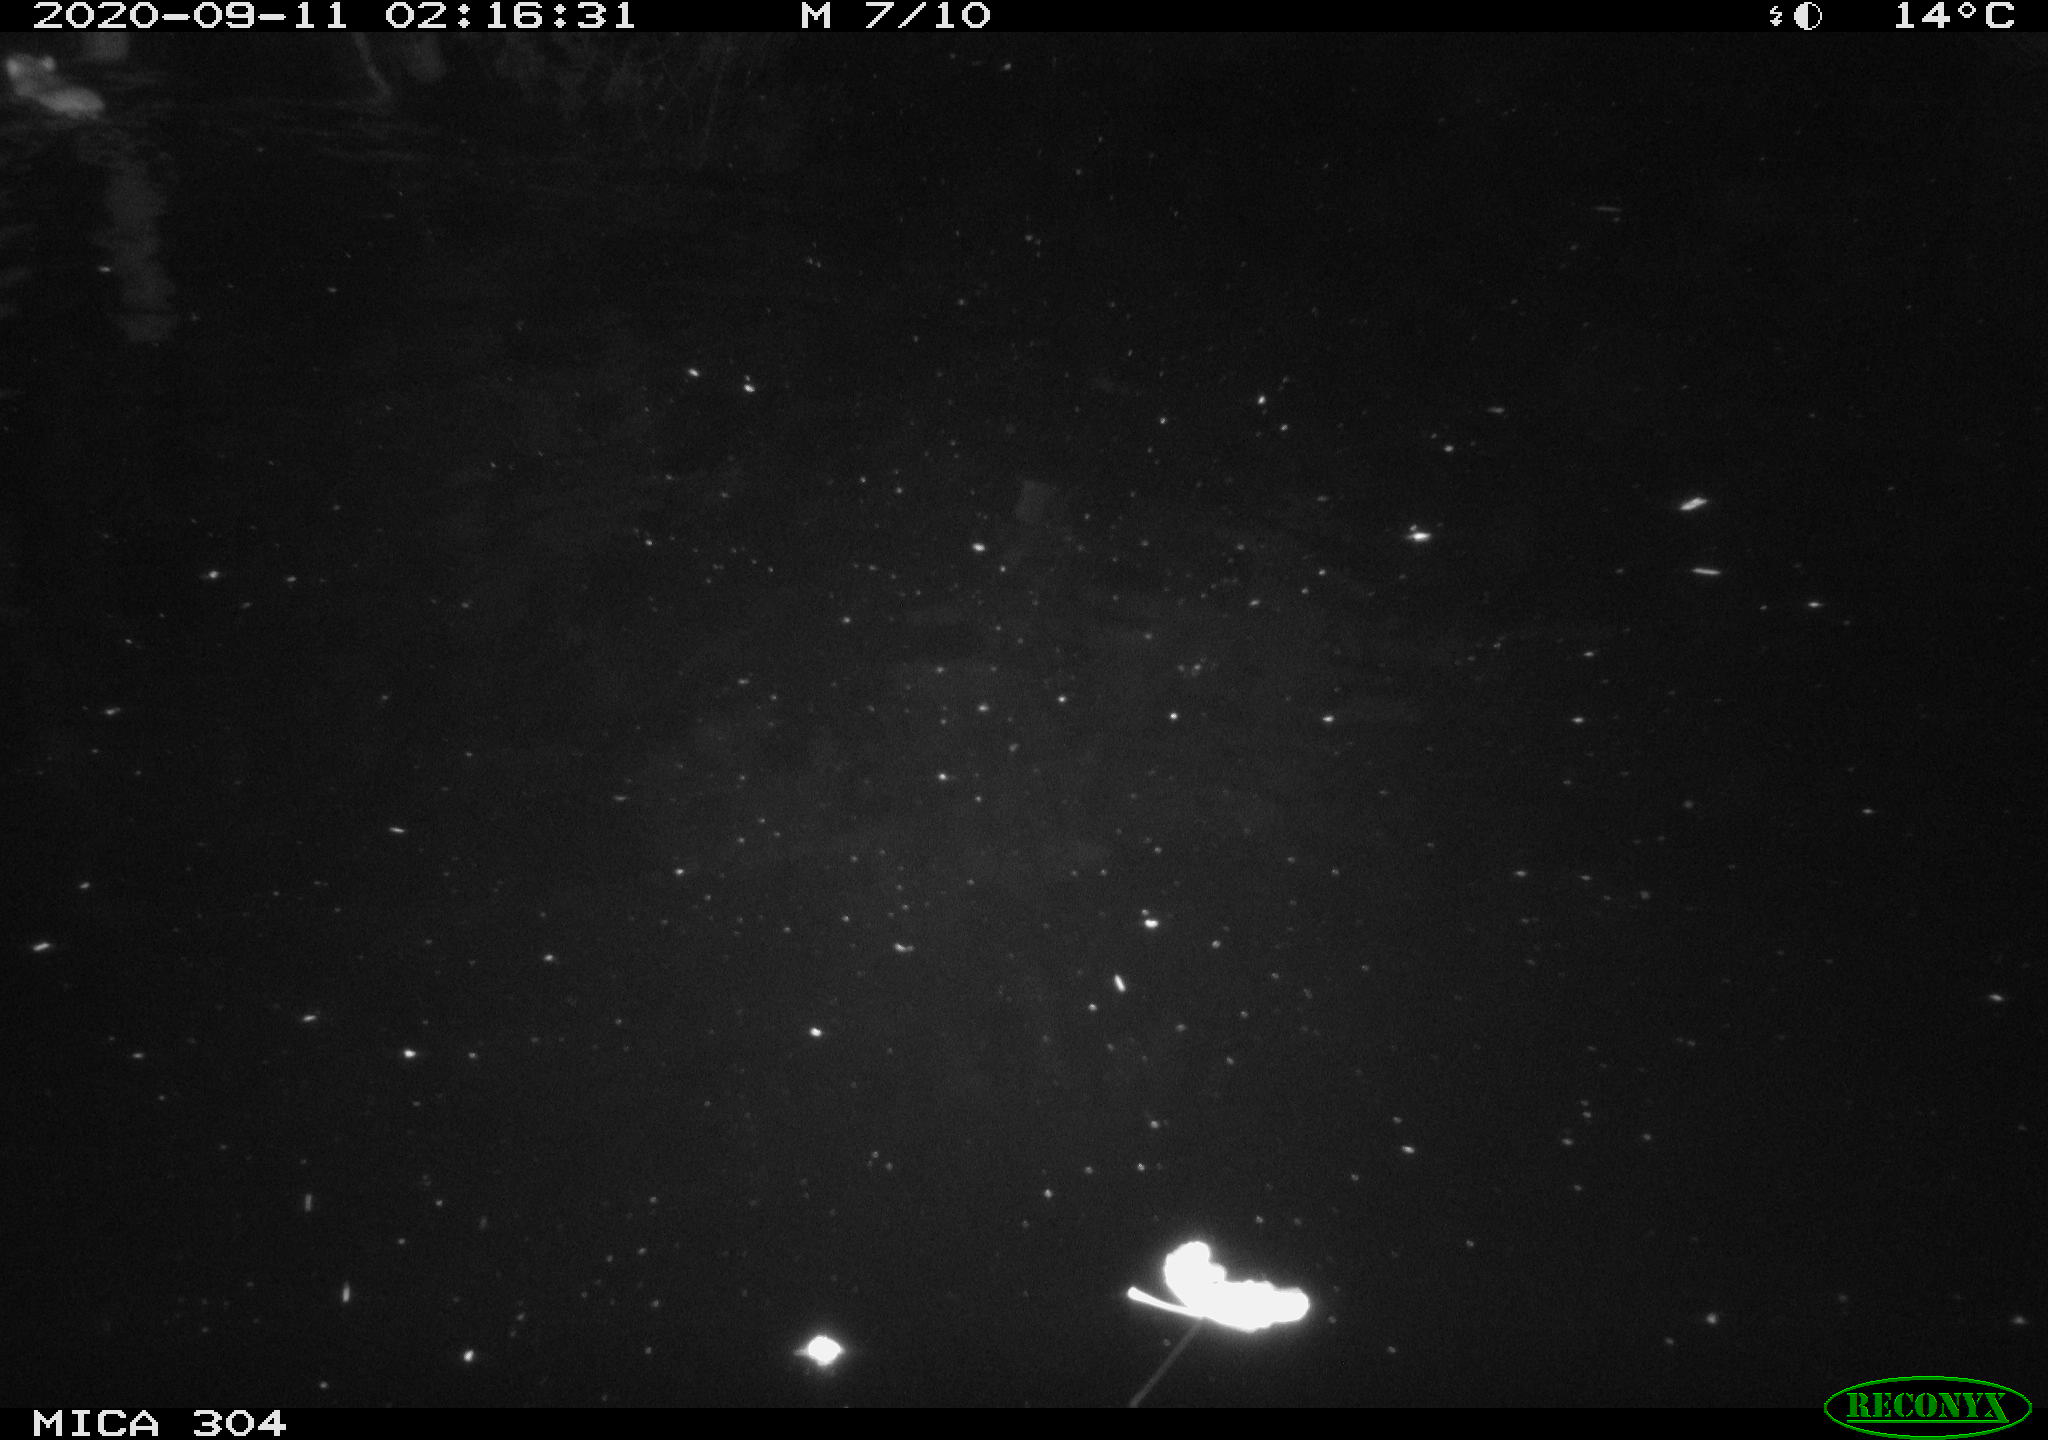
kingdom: Animalia
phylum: Chordata
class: Mammalia
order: Rodentia
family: Muridae
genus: Rattus
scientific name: Rattus norvegicus
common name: Brown rat
